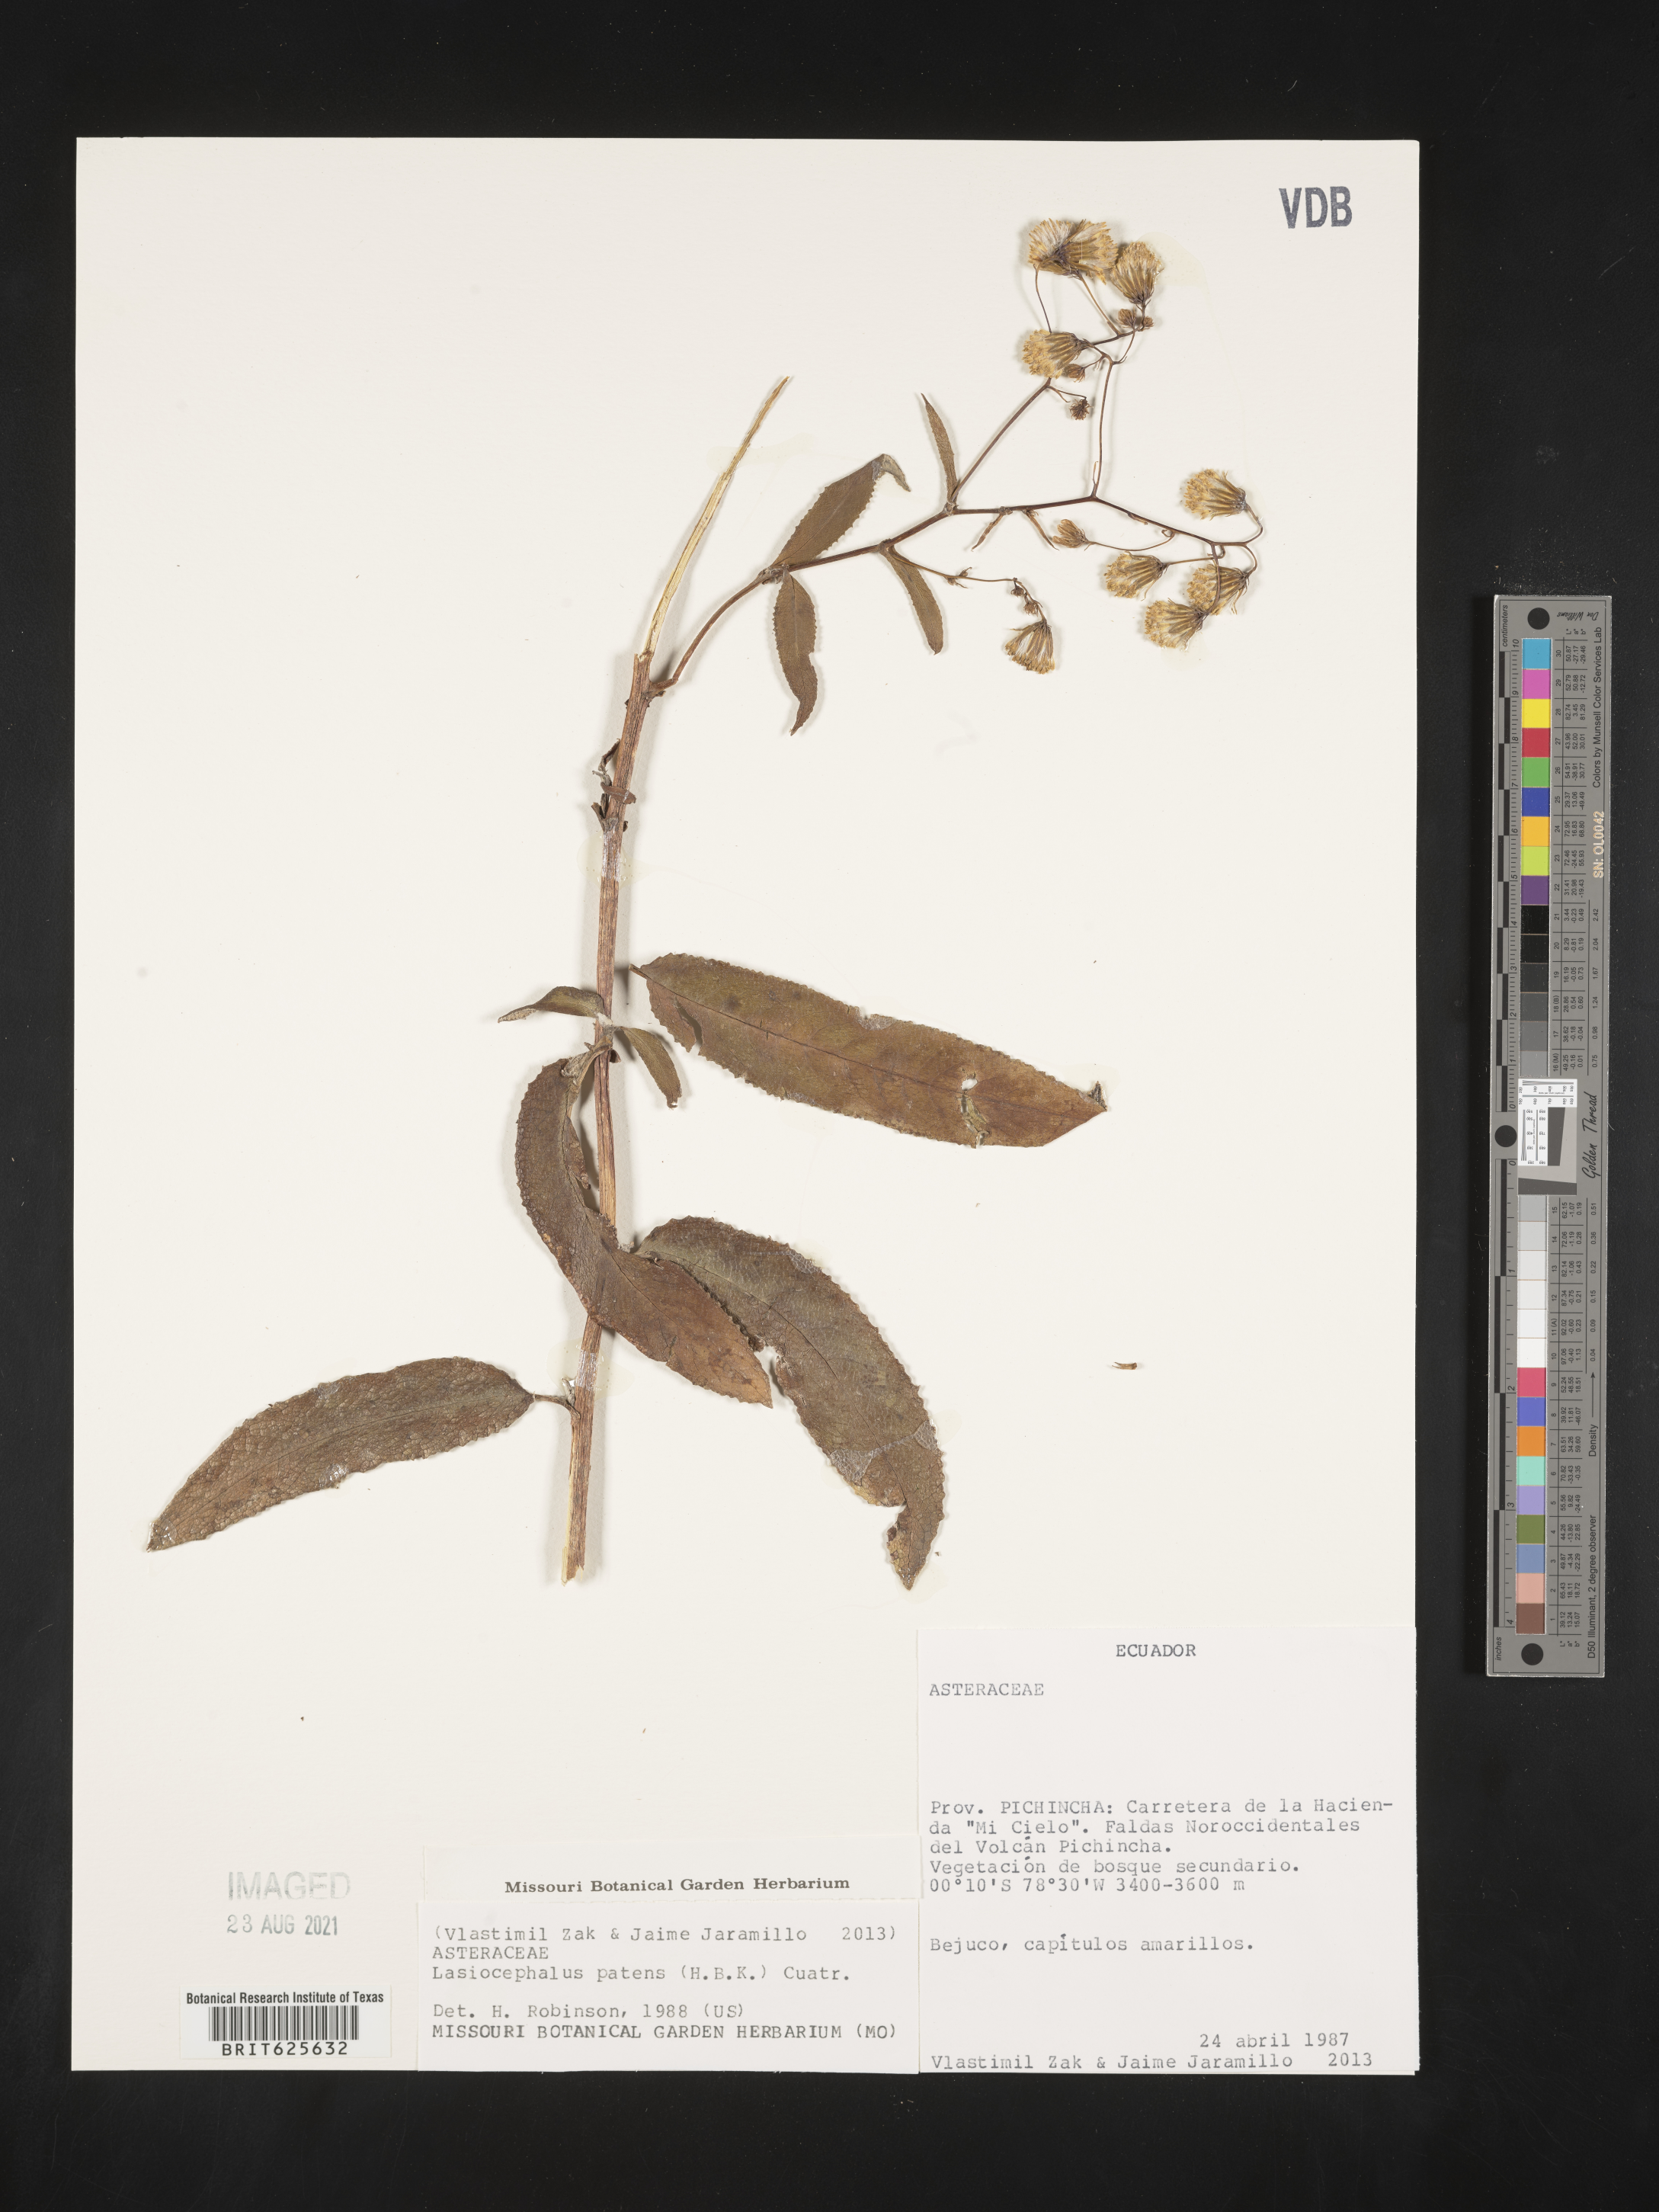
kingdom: Plantae
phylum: Tracheophyta
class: Magnoliopsida
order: Asterales
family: Asteraceae
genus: Aetheolaena
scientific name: Aetheolaena patens
